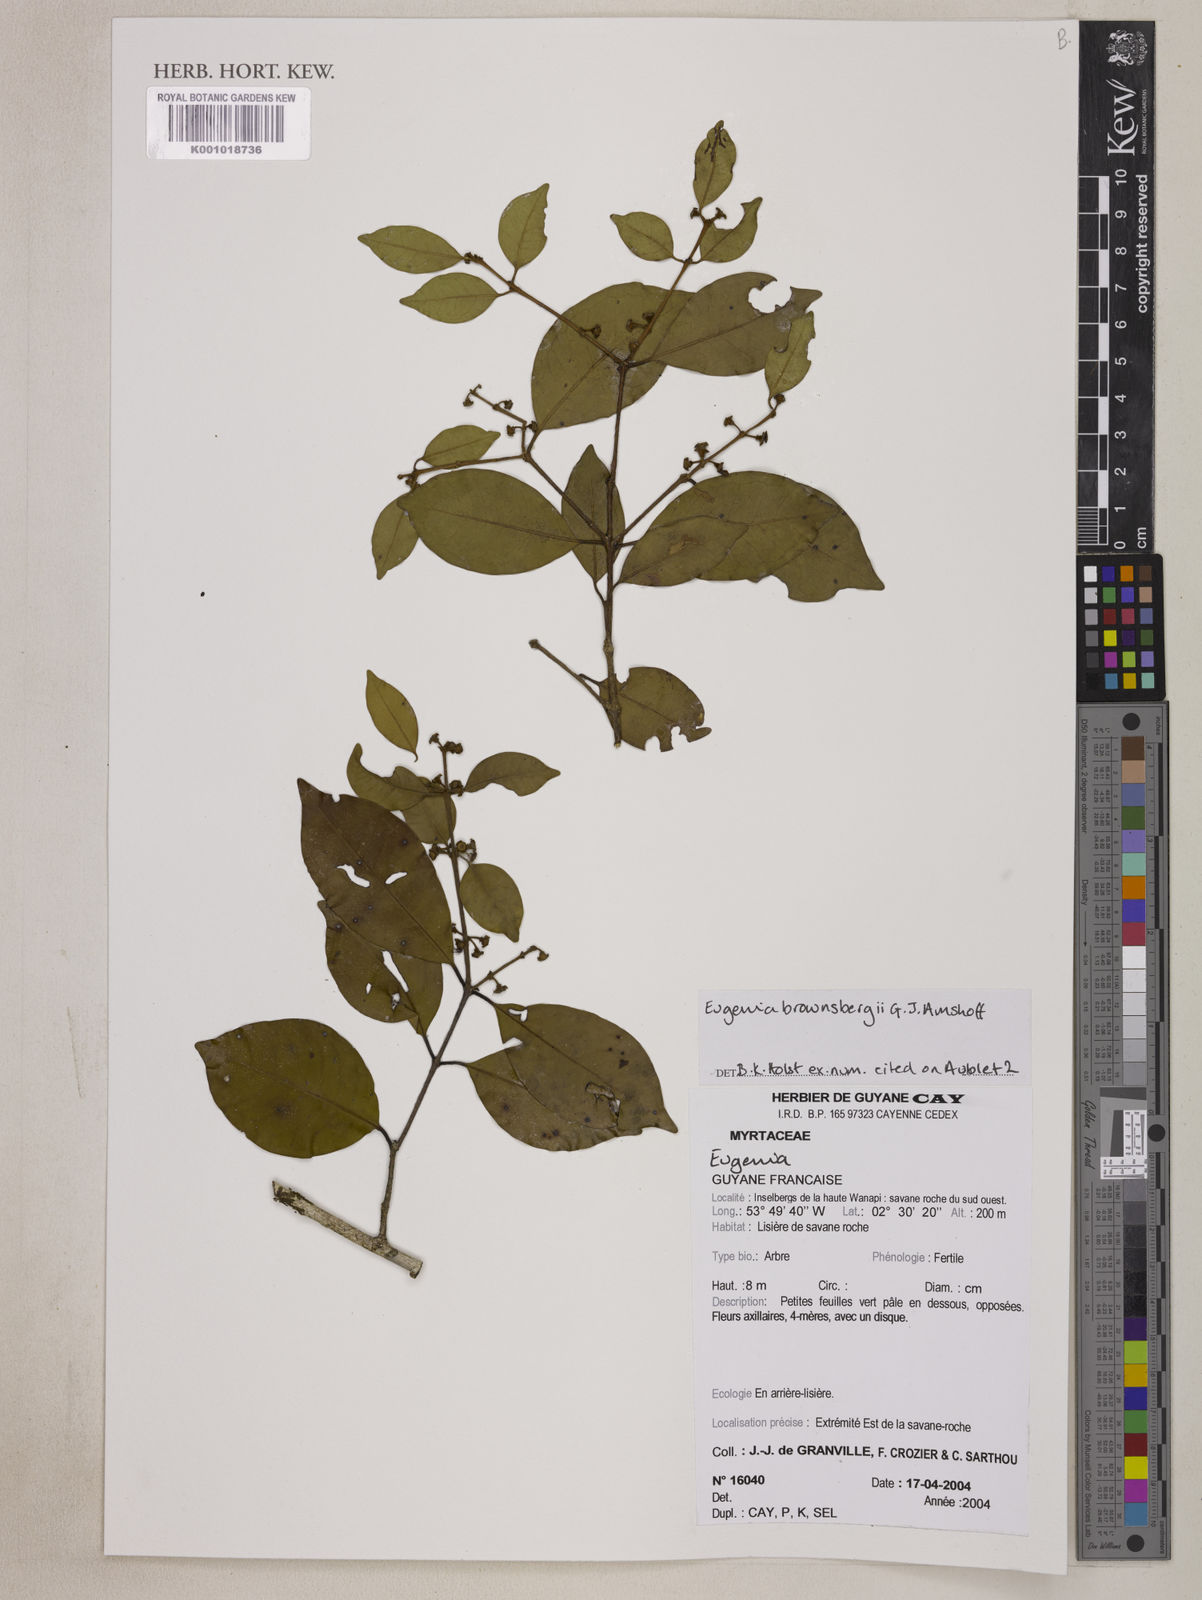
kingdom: Plantae
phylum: Tracheophyta
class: Magnoliopsida
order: Myrtales
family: Myrtaceae
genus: Eugenia
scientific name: Eugenia brownsbergii
